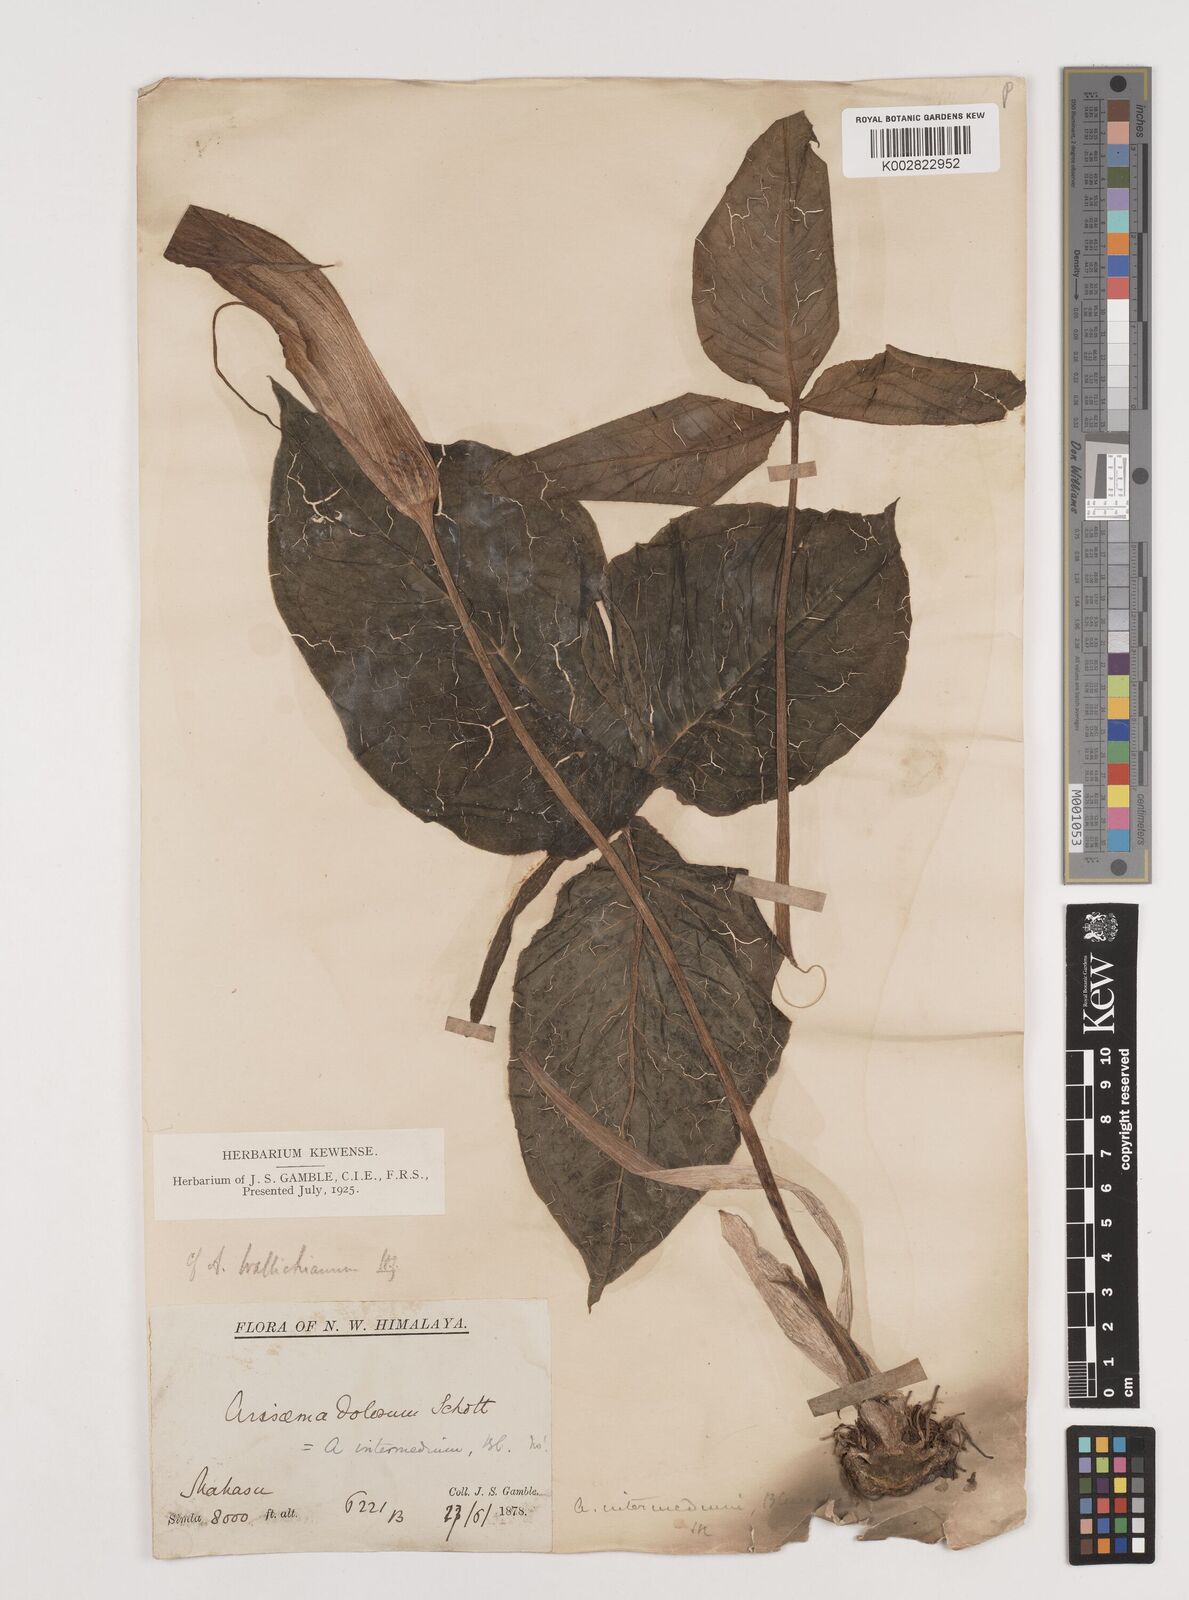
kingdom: Plantae
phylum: Tracheophyta
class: Liliopsida
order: Alismatales
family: Araceae
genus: Arisaema
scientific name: Arisaema intermedium
